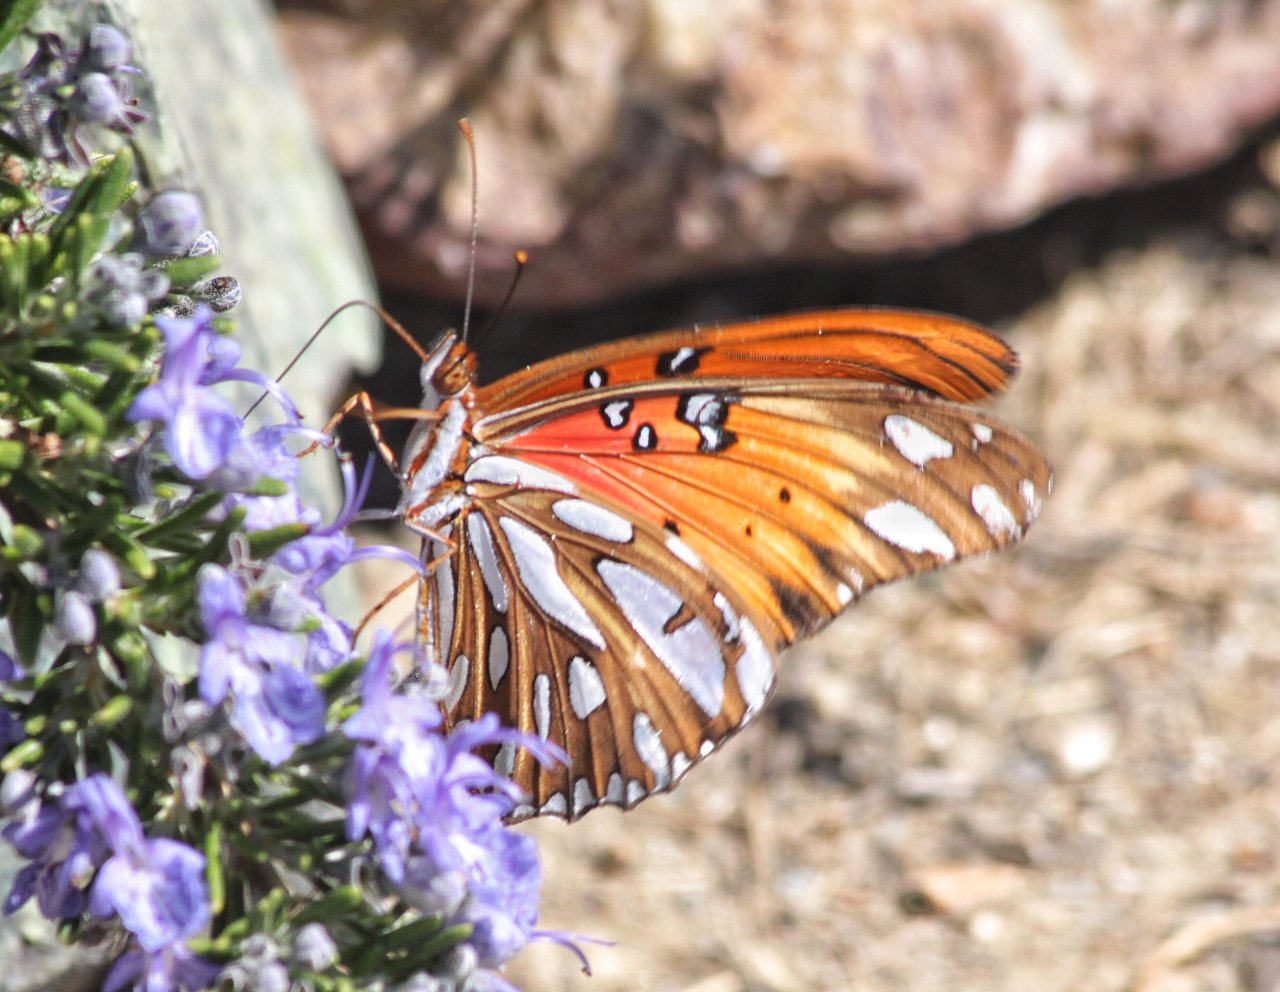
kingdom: Animalia
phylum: Arthropoda
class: Insecta
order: Lepidoptera
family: Nymphalidae
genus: Dione
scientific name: Dione vanillae
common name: Gulf Fritillary
